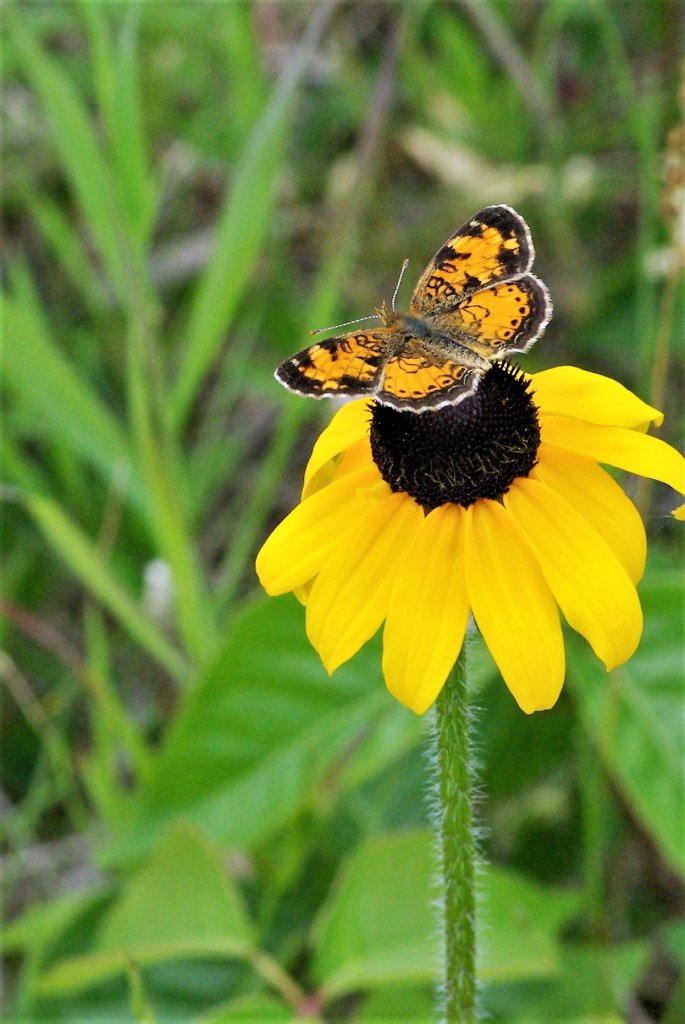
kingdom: Animalia
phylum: Arthropoda
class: Insecta
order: Lepidoptera
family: Nymphalidae
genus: Phyciodes
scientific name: Phyciodes tharos
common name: Northern Crescent
